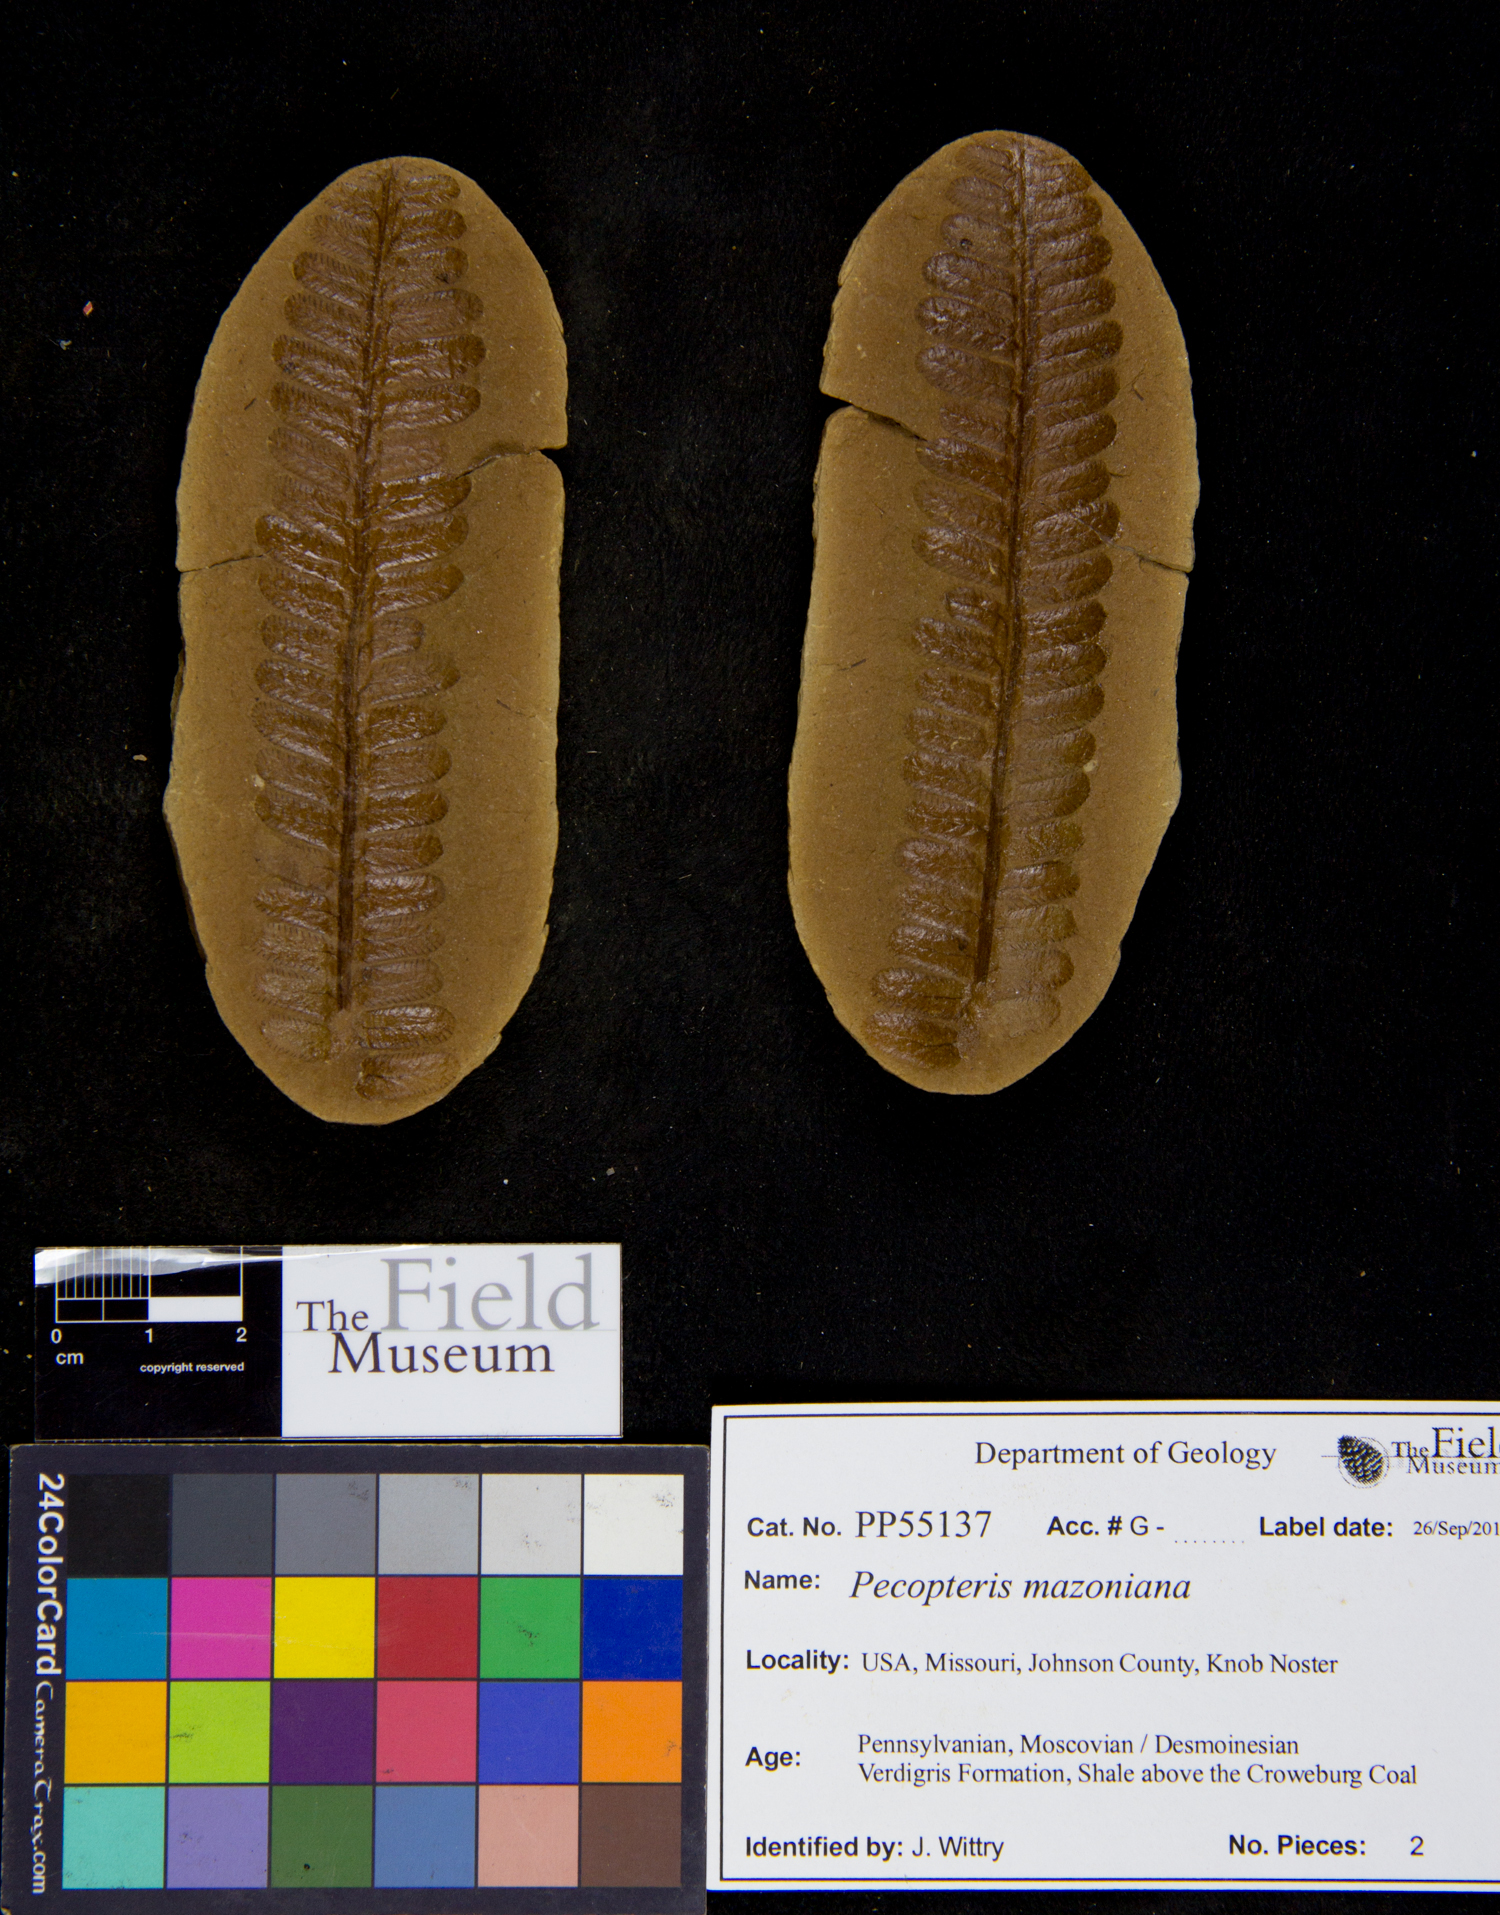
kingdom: Plantae
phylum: Tracheophyta
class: Polypodiopsida
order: Marattiales
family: Asterothecaceae
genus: Pecopteris
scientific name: Pecopteris
